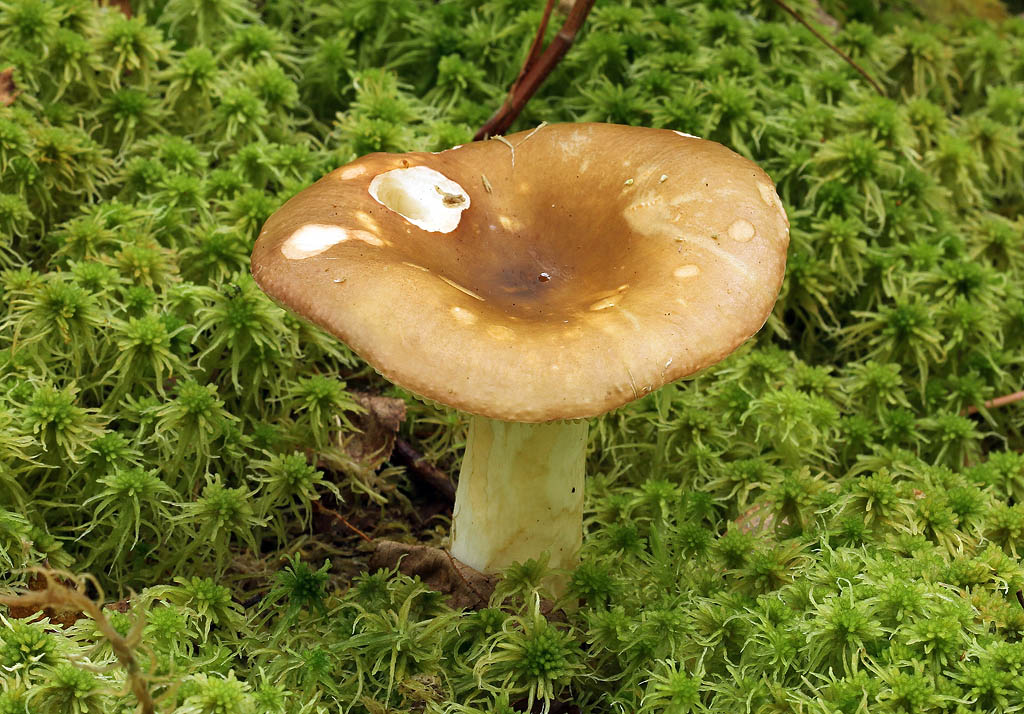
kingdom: Fungi
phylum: Basidiomycota
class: Agaricomycetes
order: Russulales
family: Russulaceae
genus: Russula
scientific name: Russula clavipes
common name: olivengrøn skørhat
